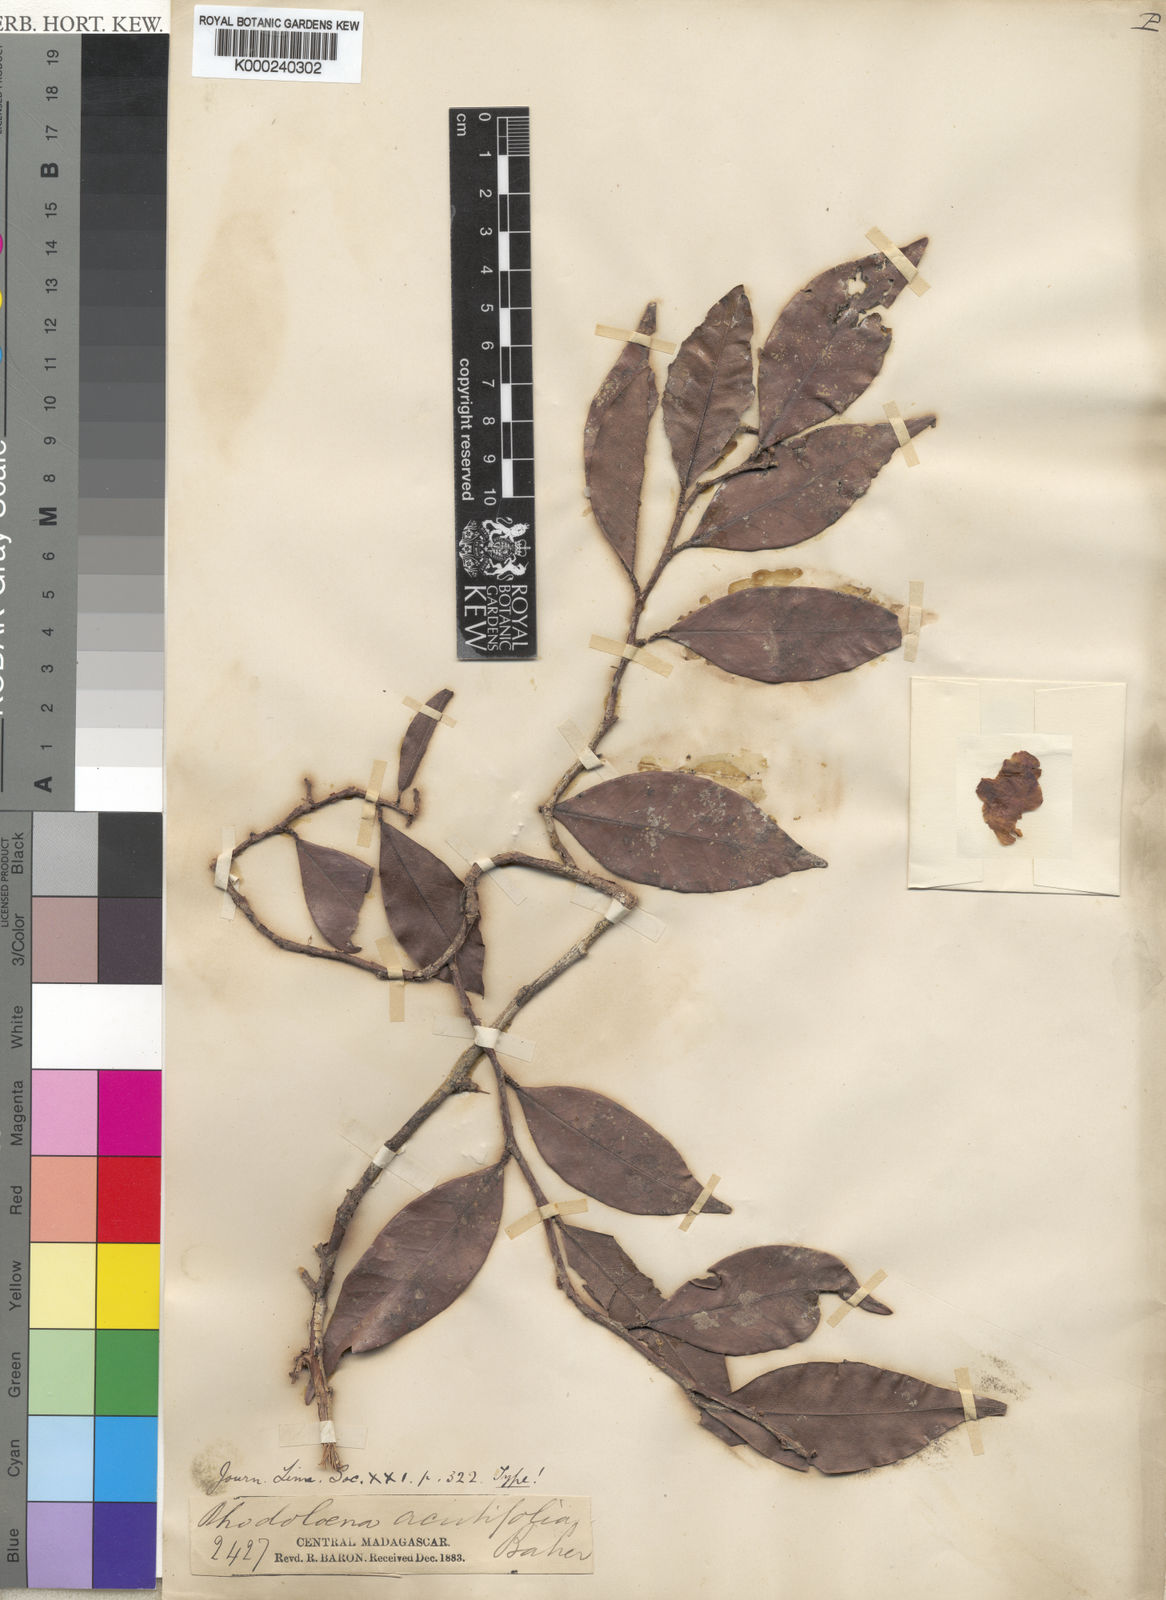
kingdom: Plantae
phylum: Tracheophyta
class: Magnoliopsida
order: Malvales
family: Sarcolaenaceae
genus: Rhodolaena
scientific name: Rhodolaena acutifolia
